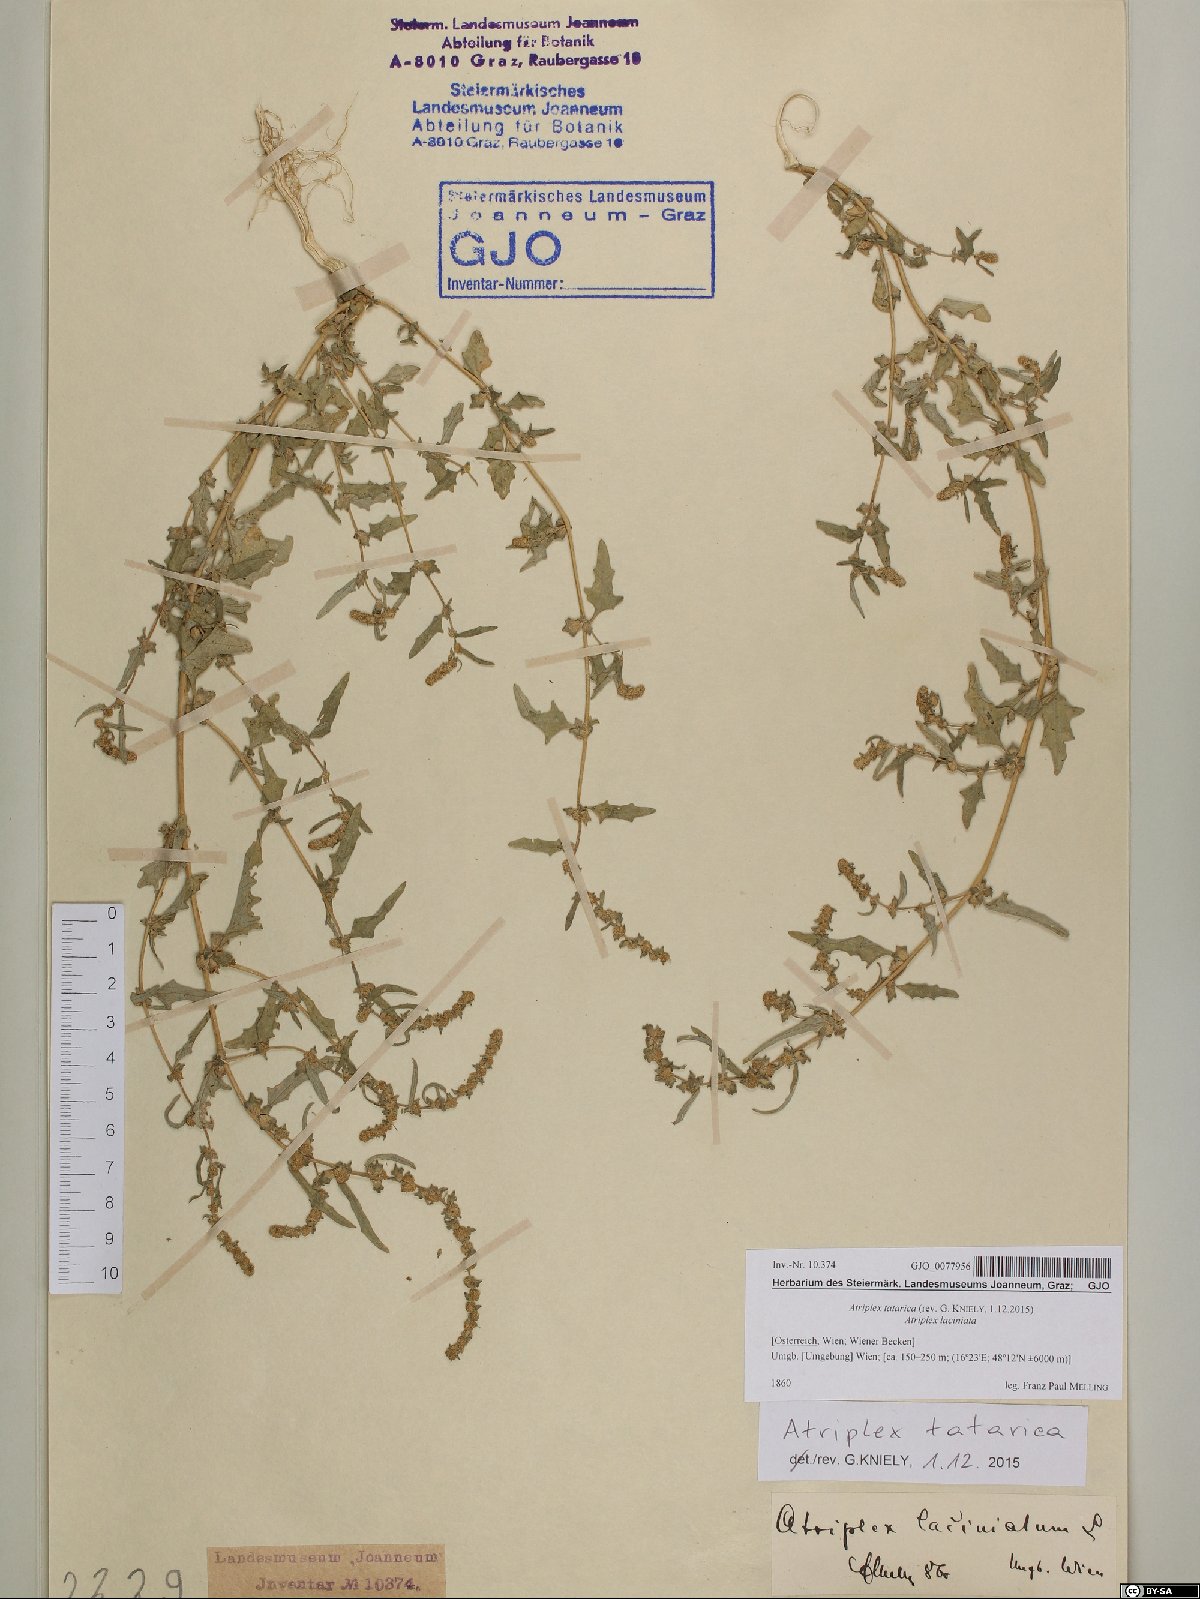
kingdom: Plantae
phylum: Tracheophyta
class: Magnoliopsida
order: Caryophyllales
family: Amaranthaceae
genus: Atriplex
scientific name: Atriplex tatarica
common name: Tatarian orache
